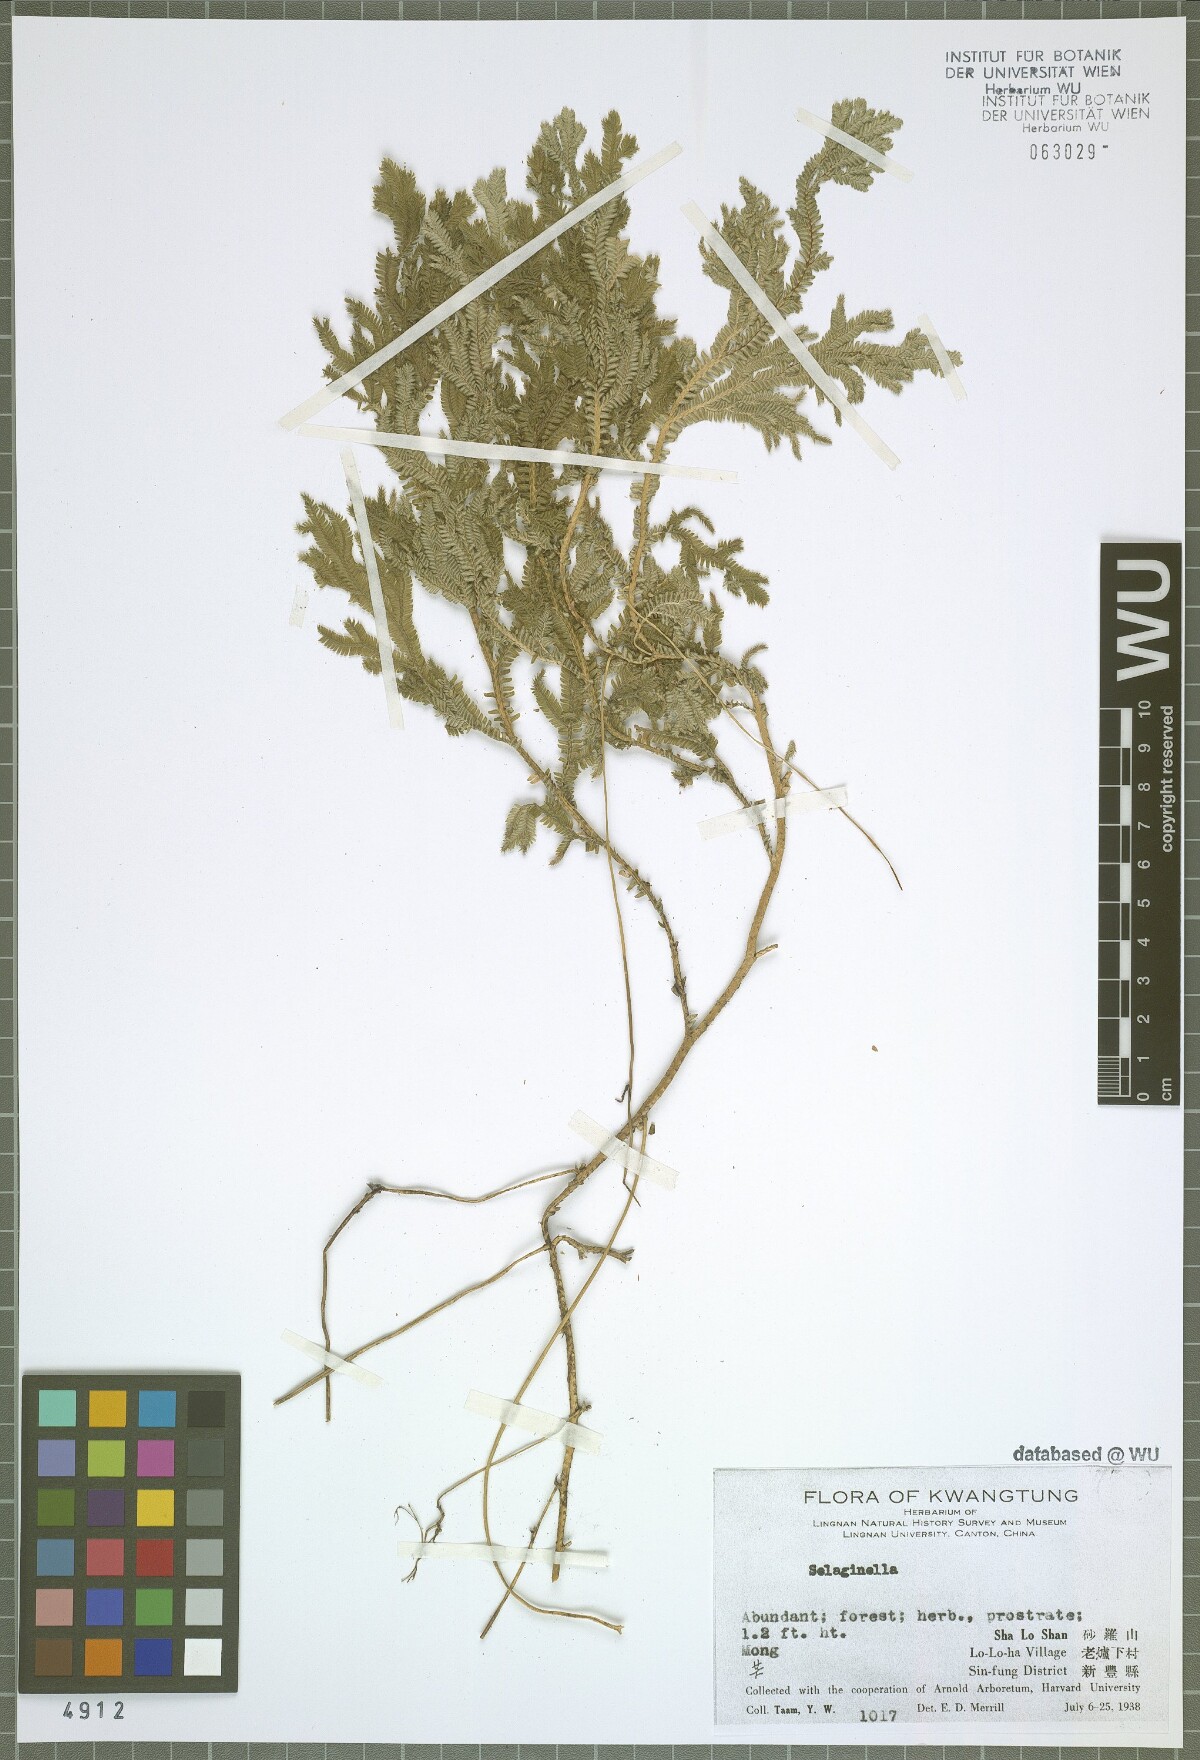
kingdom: Plantae
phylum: Tracheophyta
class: Lycopodiopsida
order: Selaginellales
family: Selaginellaceae
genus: Selaginella
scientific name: Selaginella
